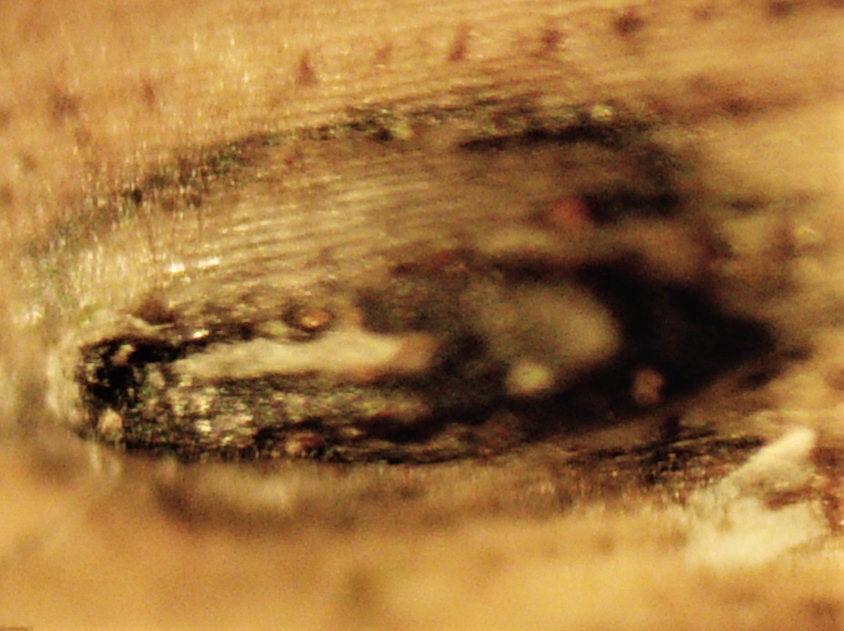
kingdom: Fungi
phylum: Ascomycota
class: Leotiomycetes
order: Rhytismatales
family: Rhytismataceae
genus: Lophodermium
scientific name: Lophodermium pinastri
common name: fyrre-fureplet
